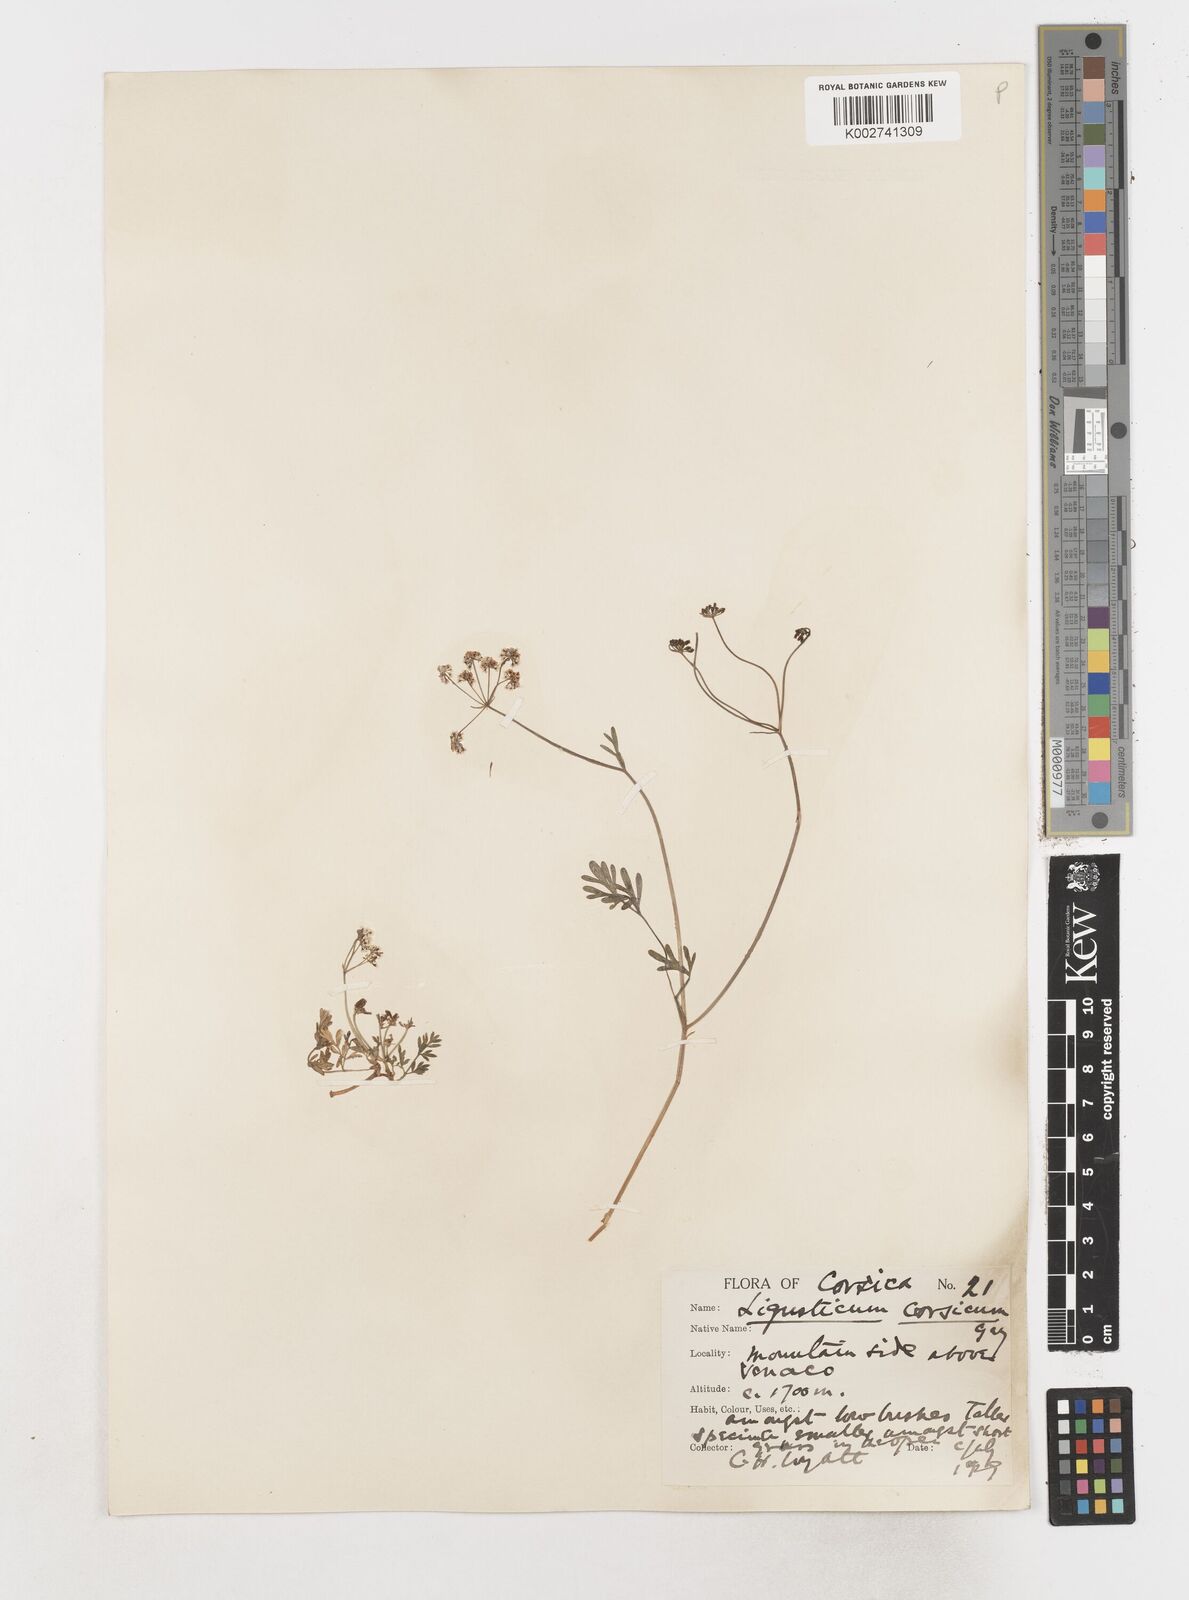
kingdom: Plantae
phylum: Tracheophyta
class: Magnoliopsida
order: Apiales
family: Apiaceae
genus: Mutellina
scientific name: Mutellina adonidifolia
